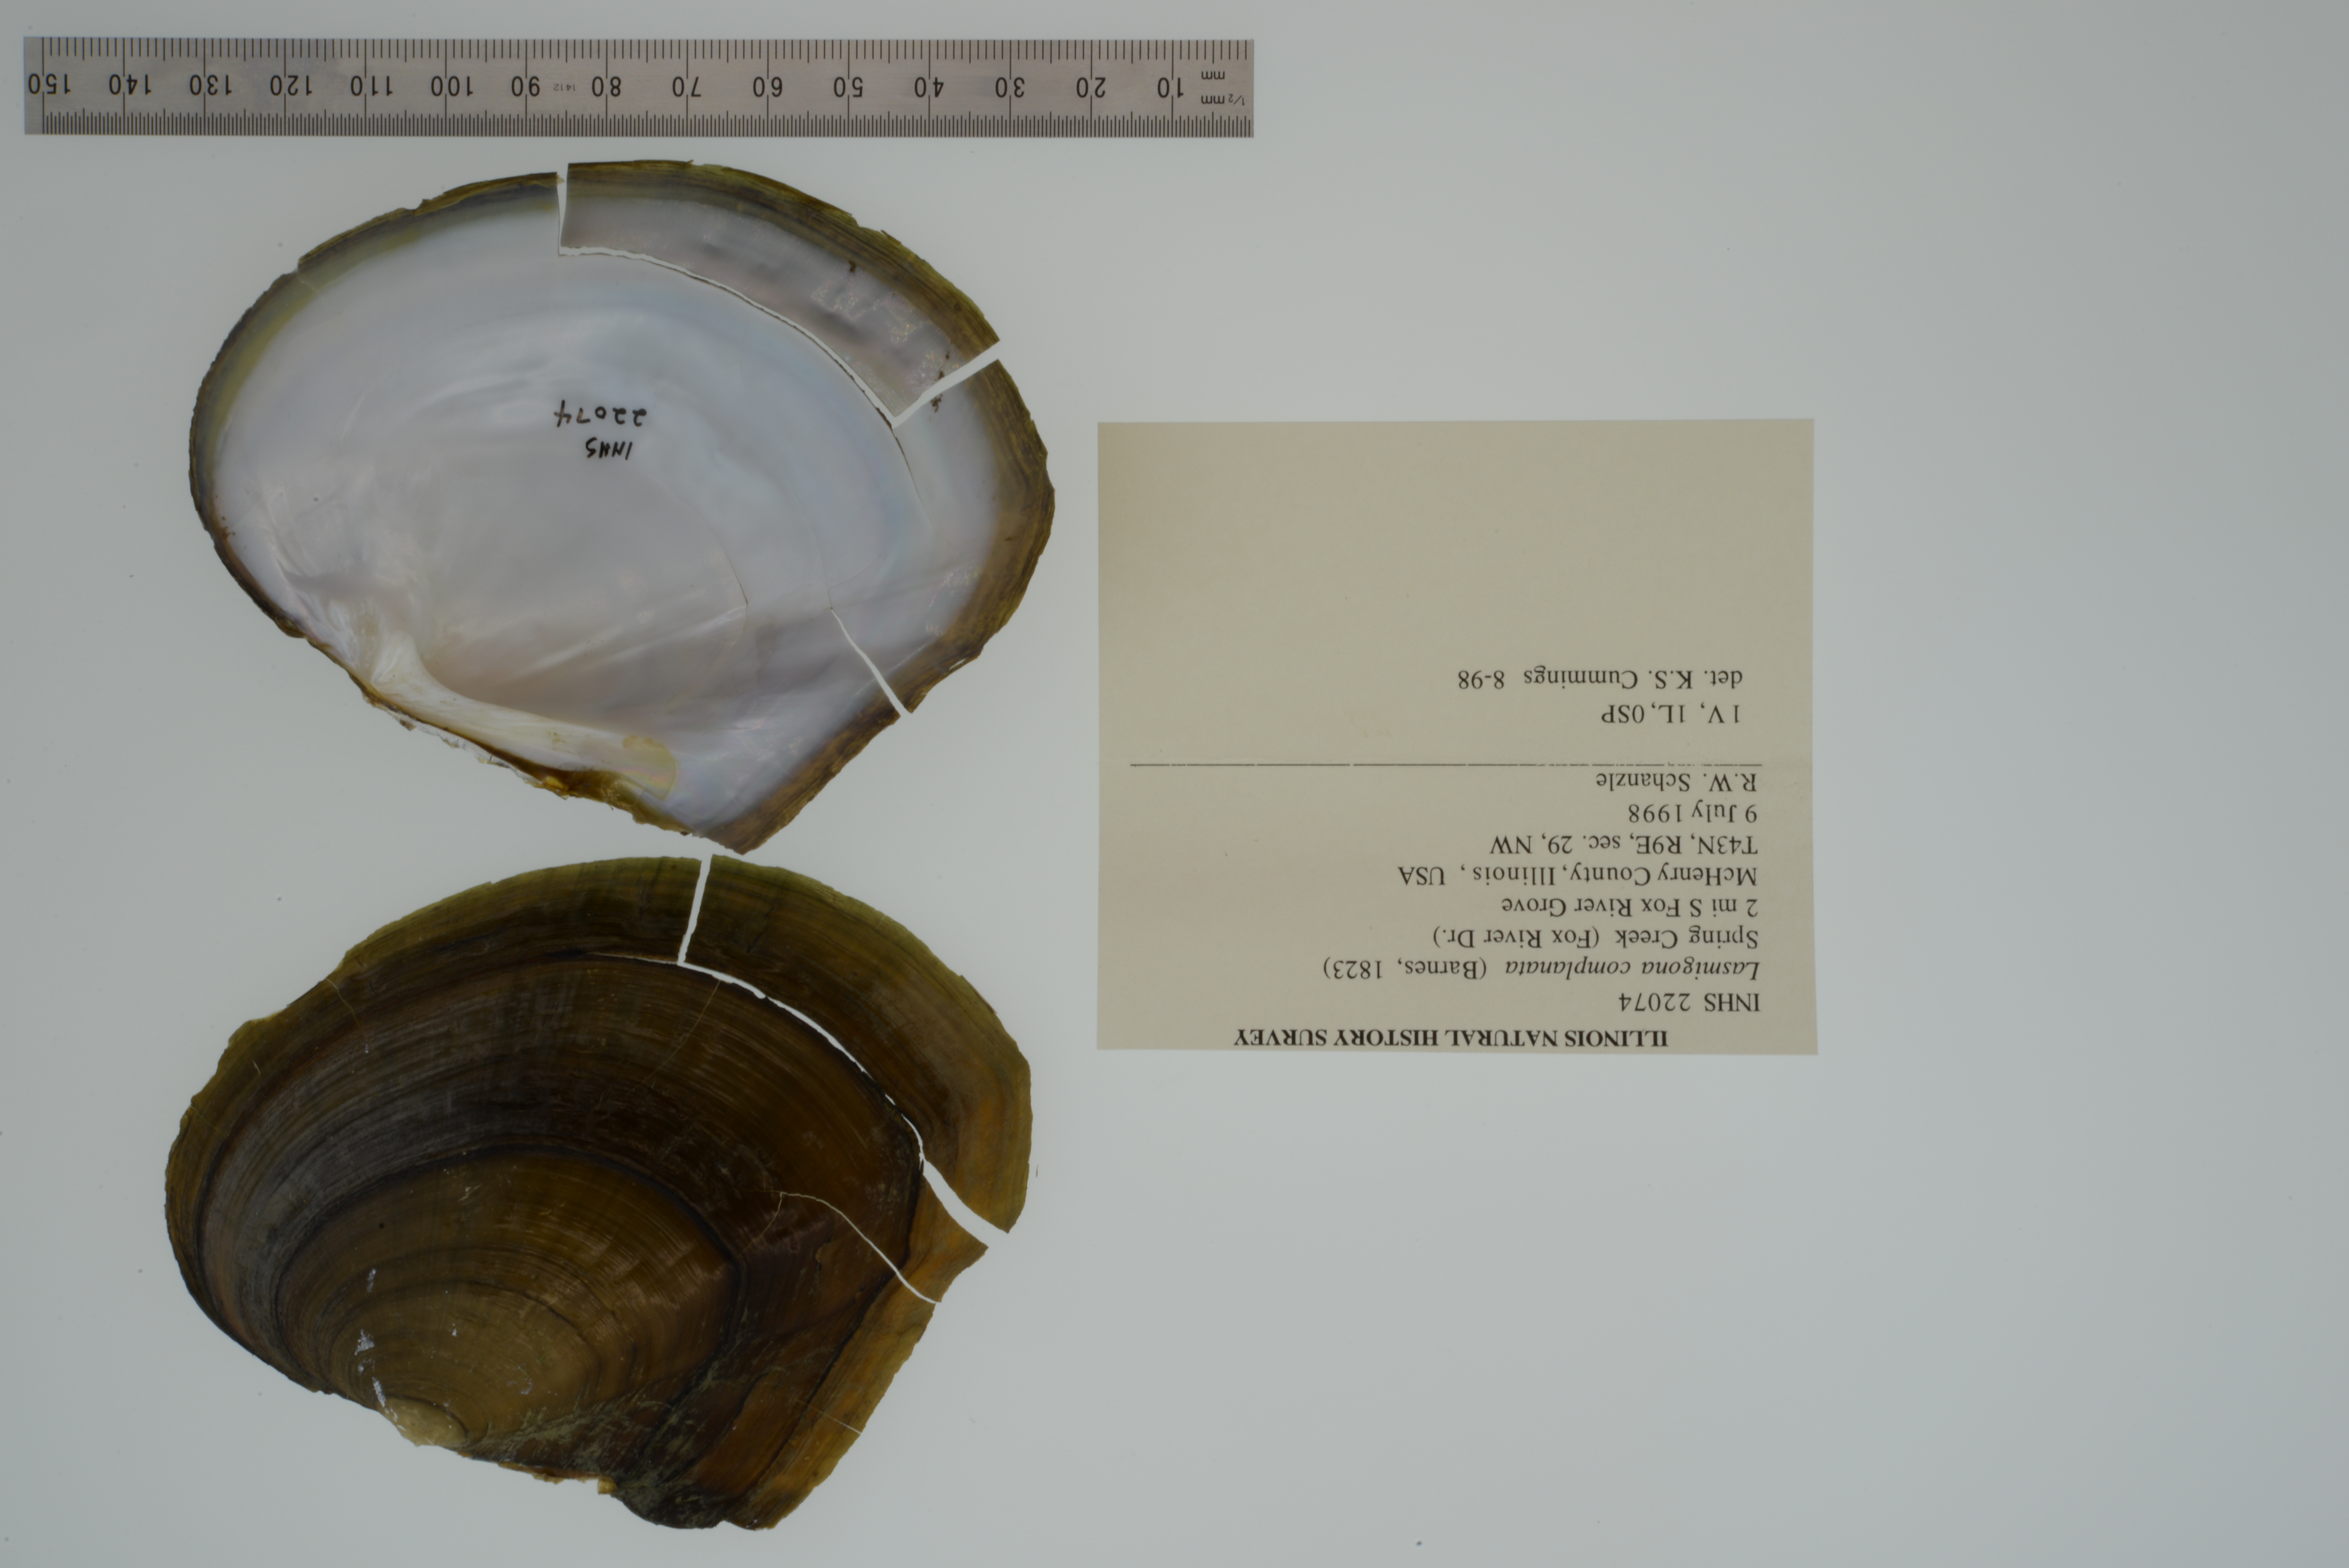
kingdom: Animalia
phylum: Mollusca
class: Bivalvia
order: Unionida
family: Unionidae
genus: Lasmigona
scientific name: Lasmigona complanata
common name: White heelsplitter
